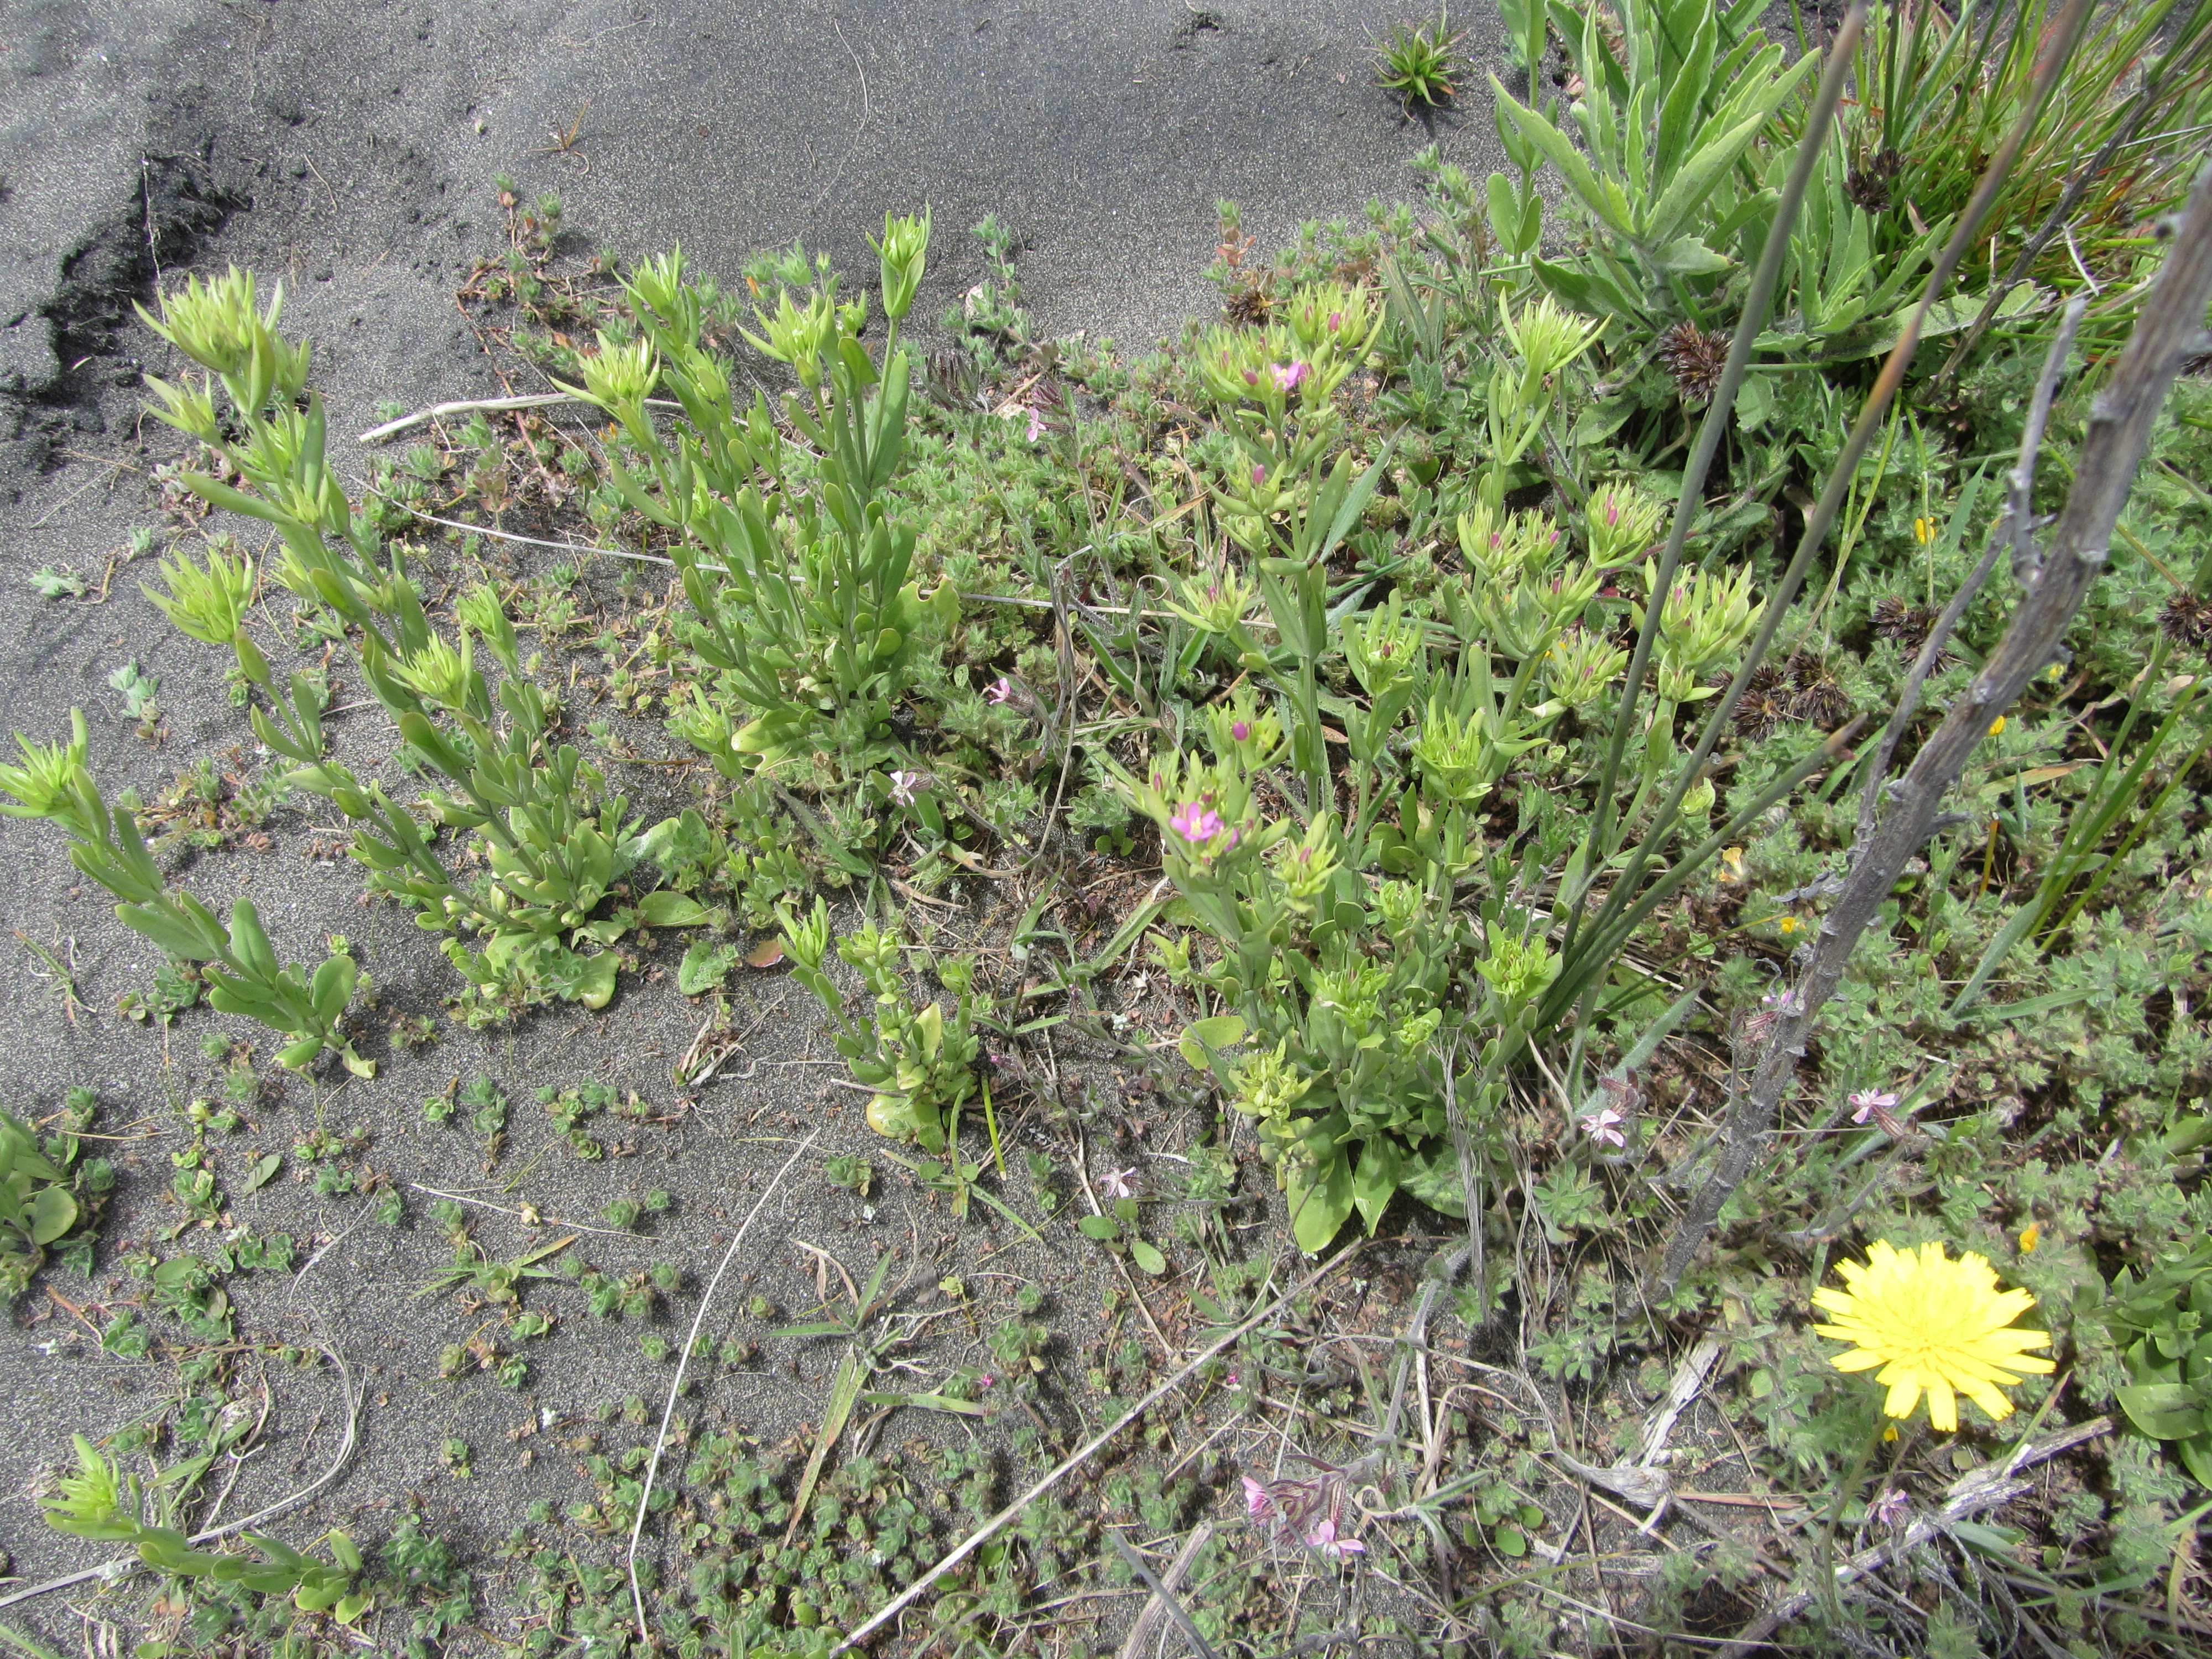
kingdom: Plantae
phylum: Tracheophyta
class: Magnoliopsida
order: Gentianales
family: Gentianaceae
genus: Centaurium
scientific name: Centaurium erythraea
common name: Common centaury
